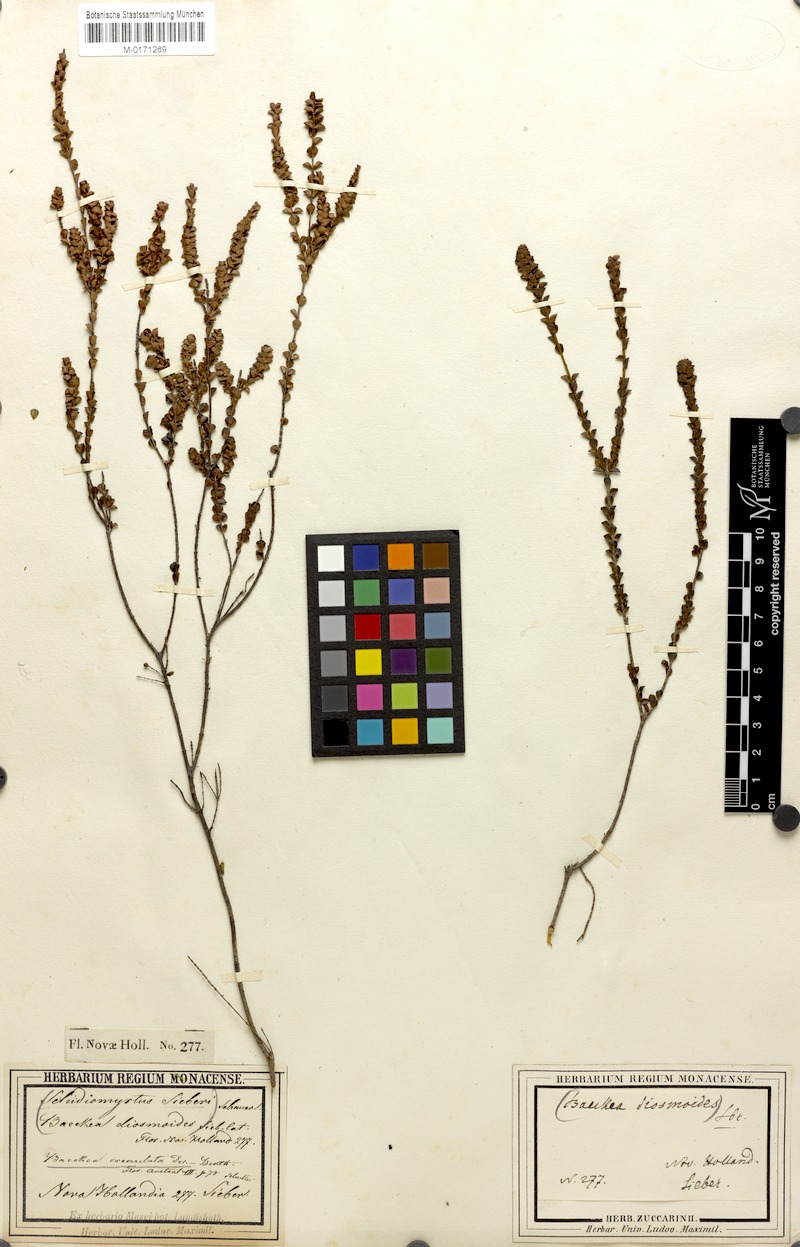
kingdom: Plantae
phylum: Tracheophyta
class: Magnoliopsida
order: Myrtales
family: Myrtaceae
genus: Baeckea
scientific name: Baeckea imbricata
